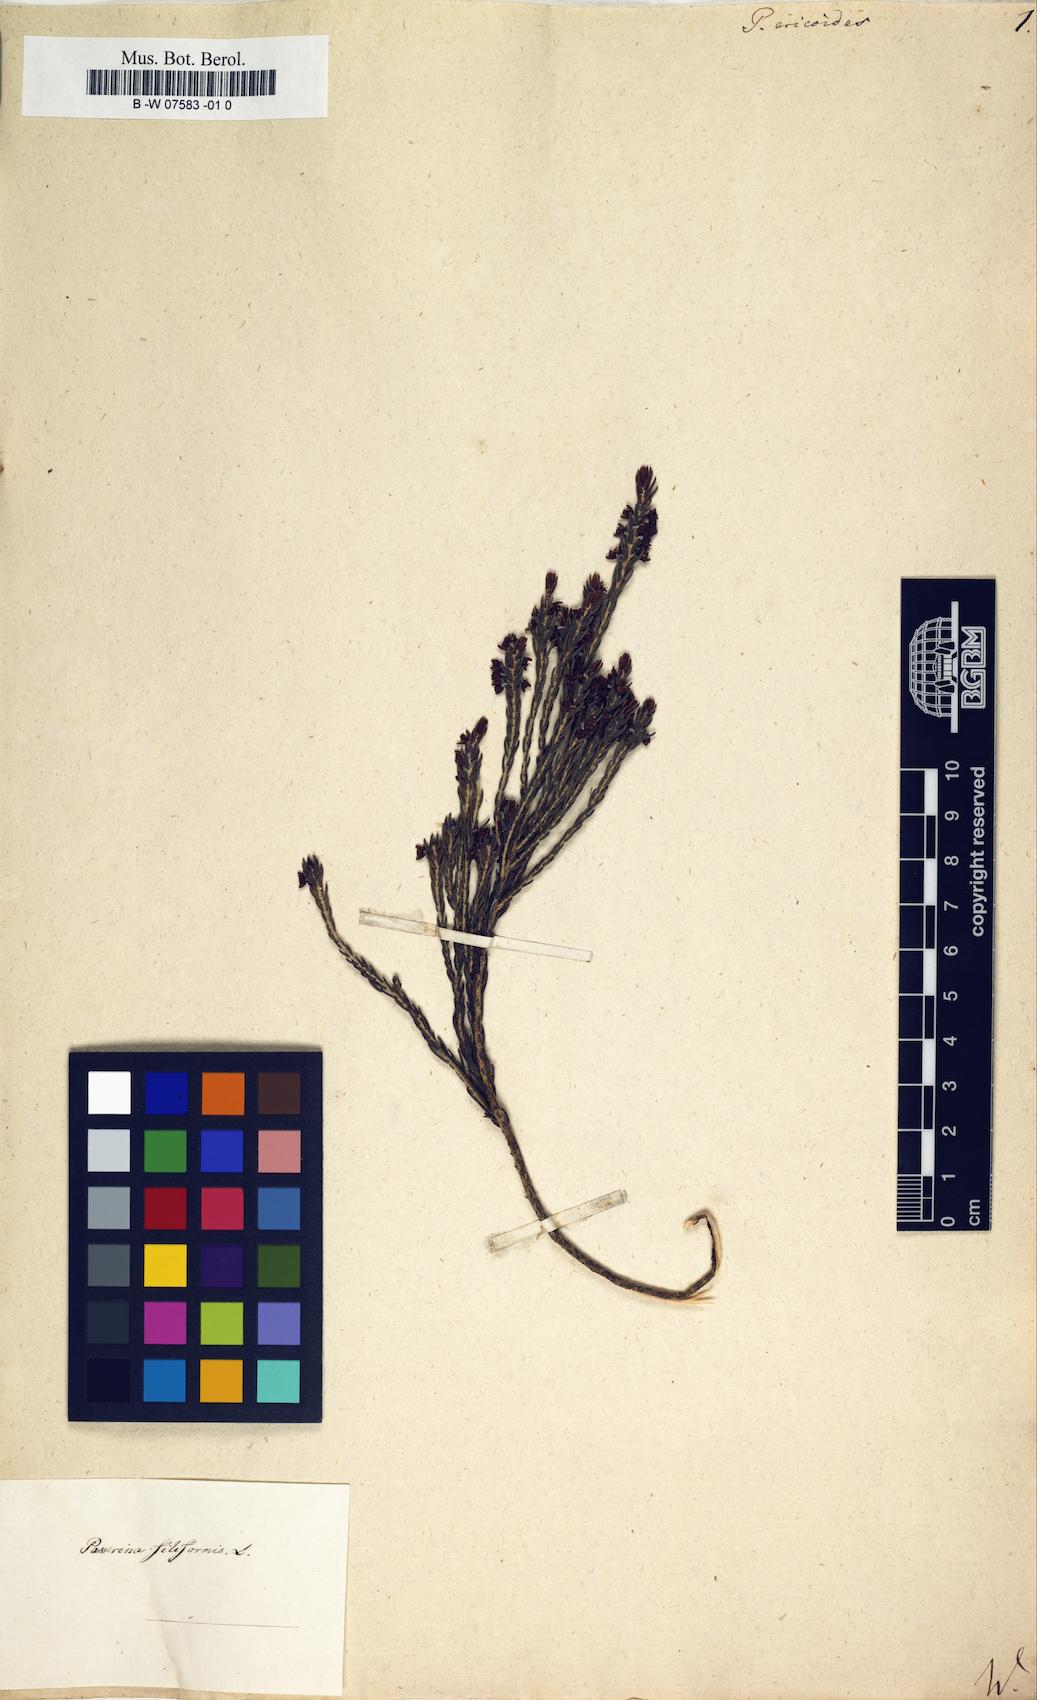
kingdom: Plantae
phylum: Tracheophyta
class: Magnoliopsida
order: Malvales
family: Thymelaeaceae
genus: Passerina
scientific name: Passerina ericoides
